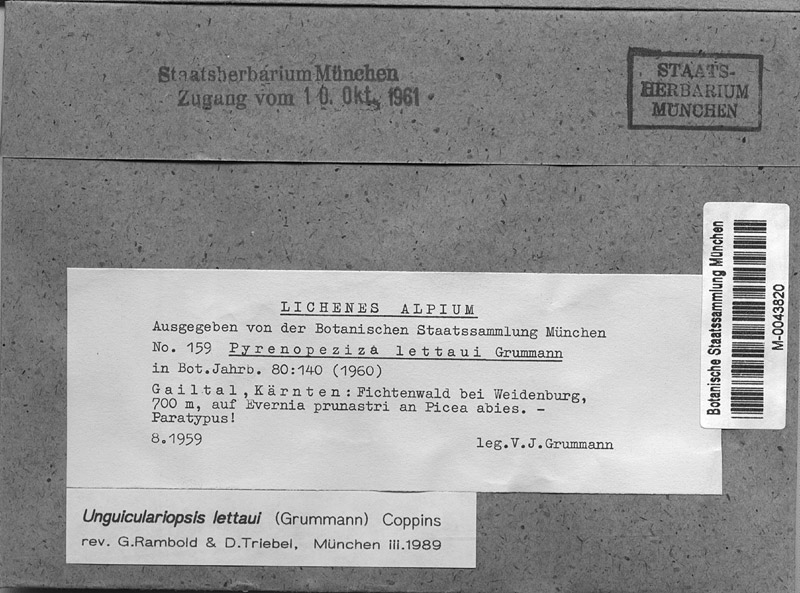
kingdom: Fungi
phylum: Ascomycota
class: Lecanoromycetes
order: Lecanorales
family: Parmeliaceae
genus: Evernia
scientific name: Evernia prunastri
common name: Oak moss
